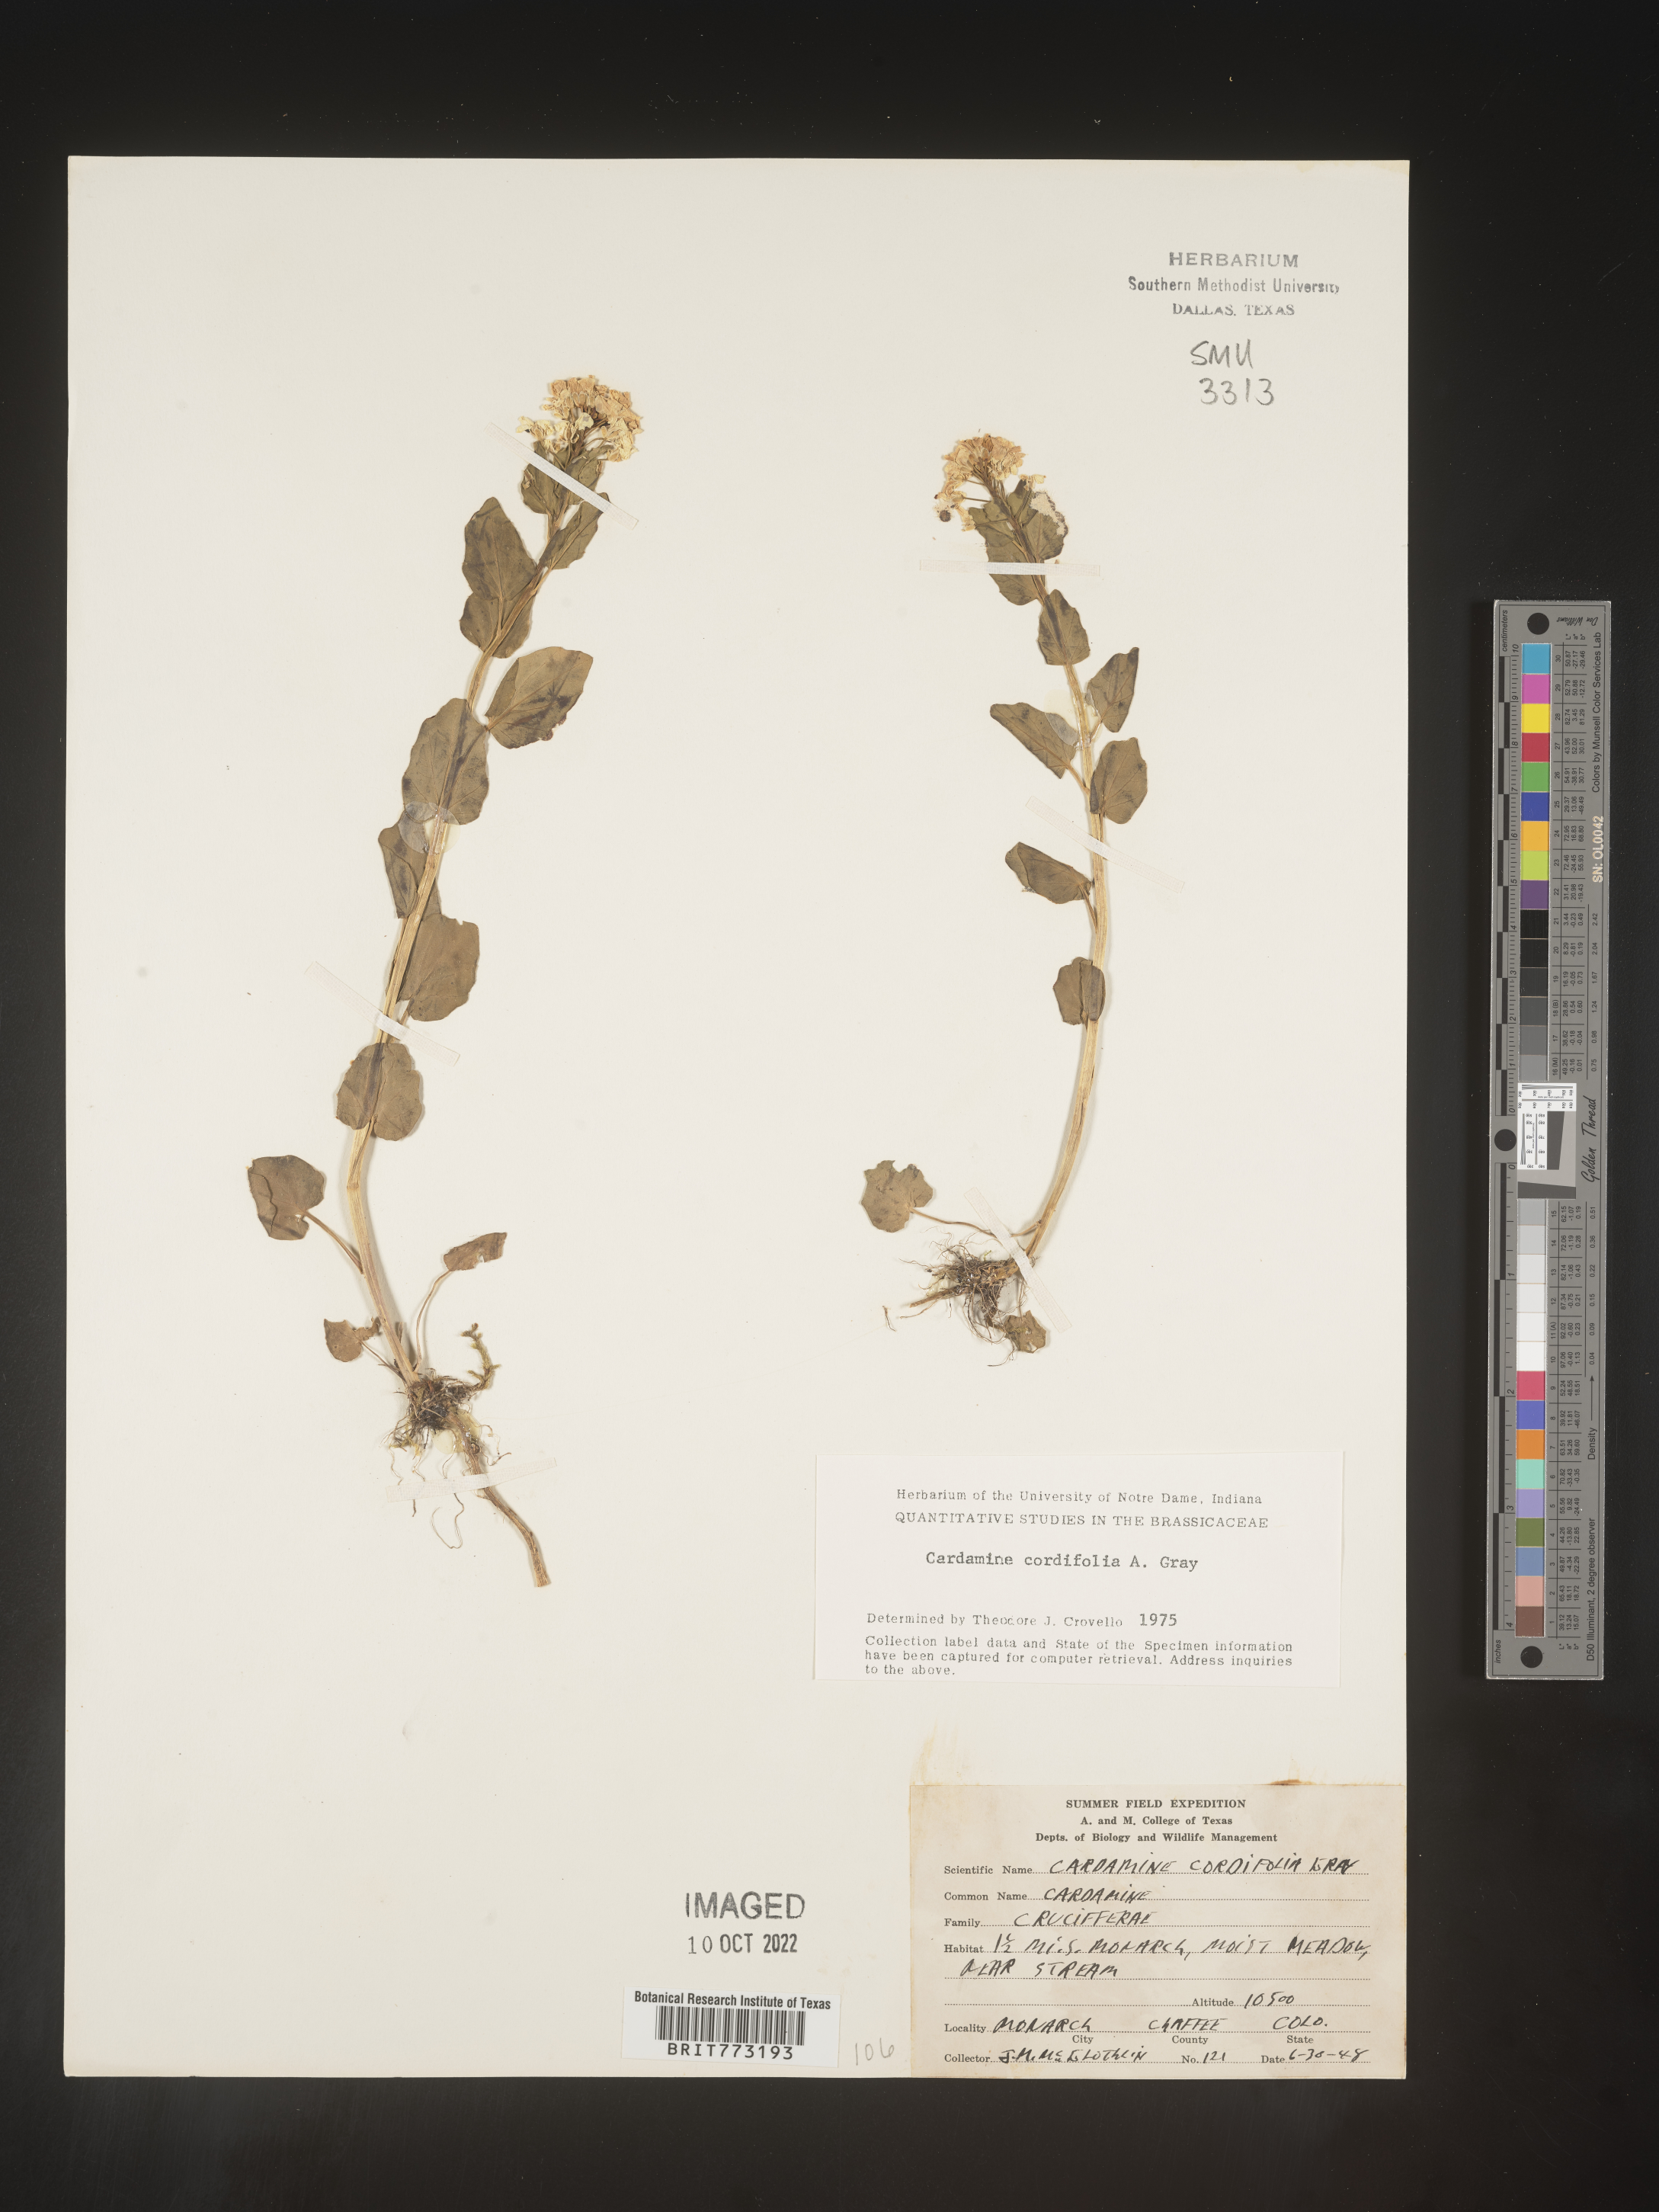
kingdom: Plantae
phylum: Tracheophyta
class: Magnoliopsida
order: Brassicales
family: Brassicaceae
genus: Cardamine
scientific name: Cardamine
